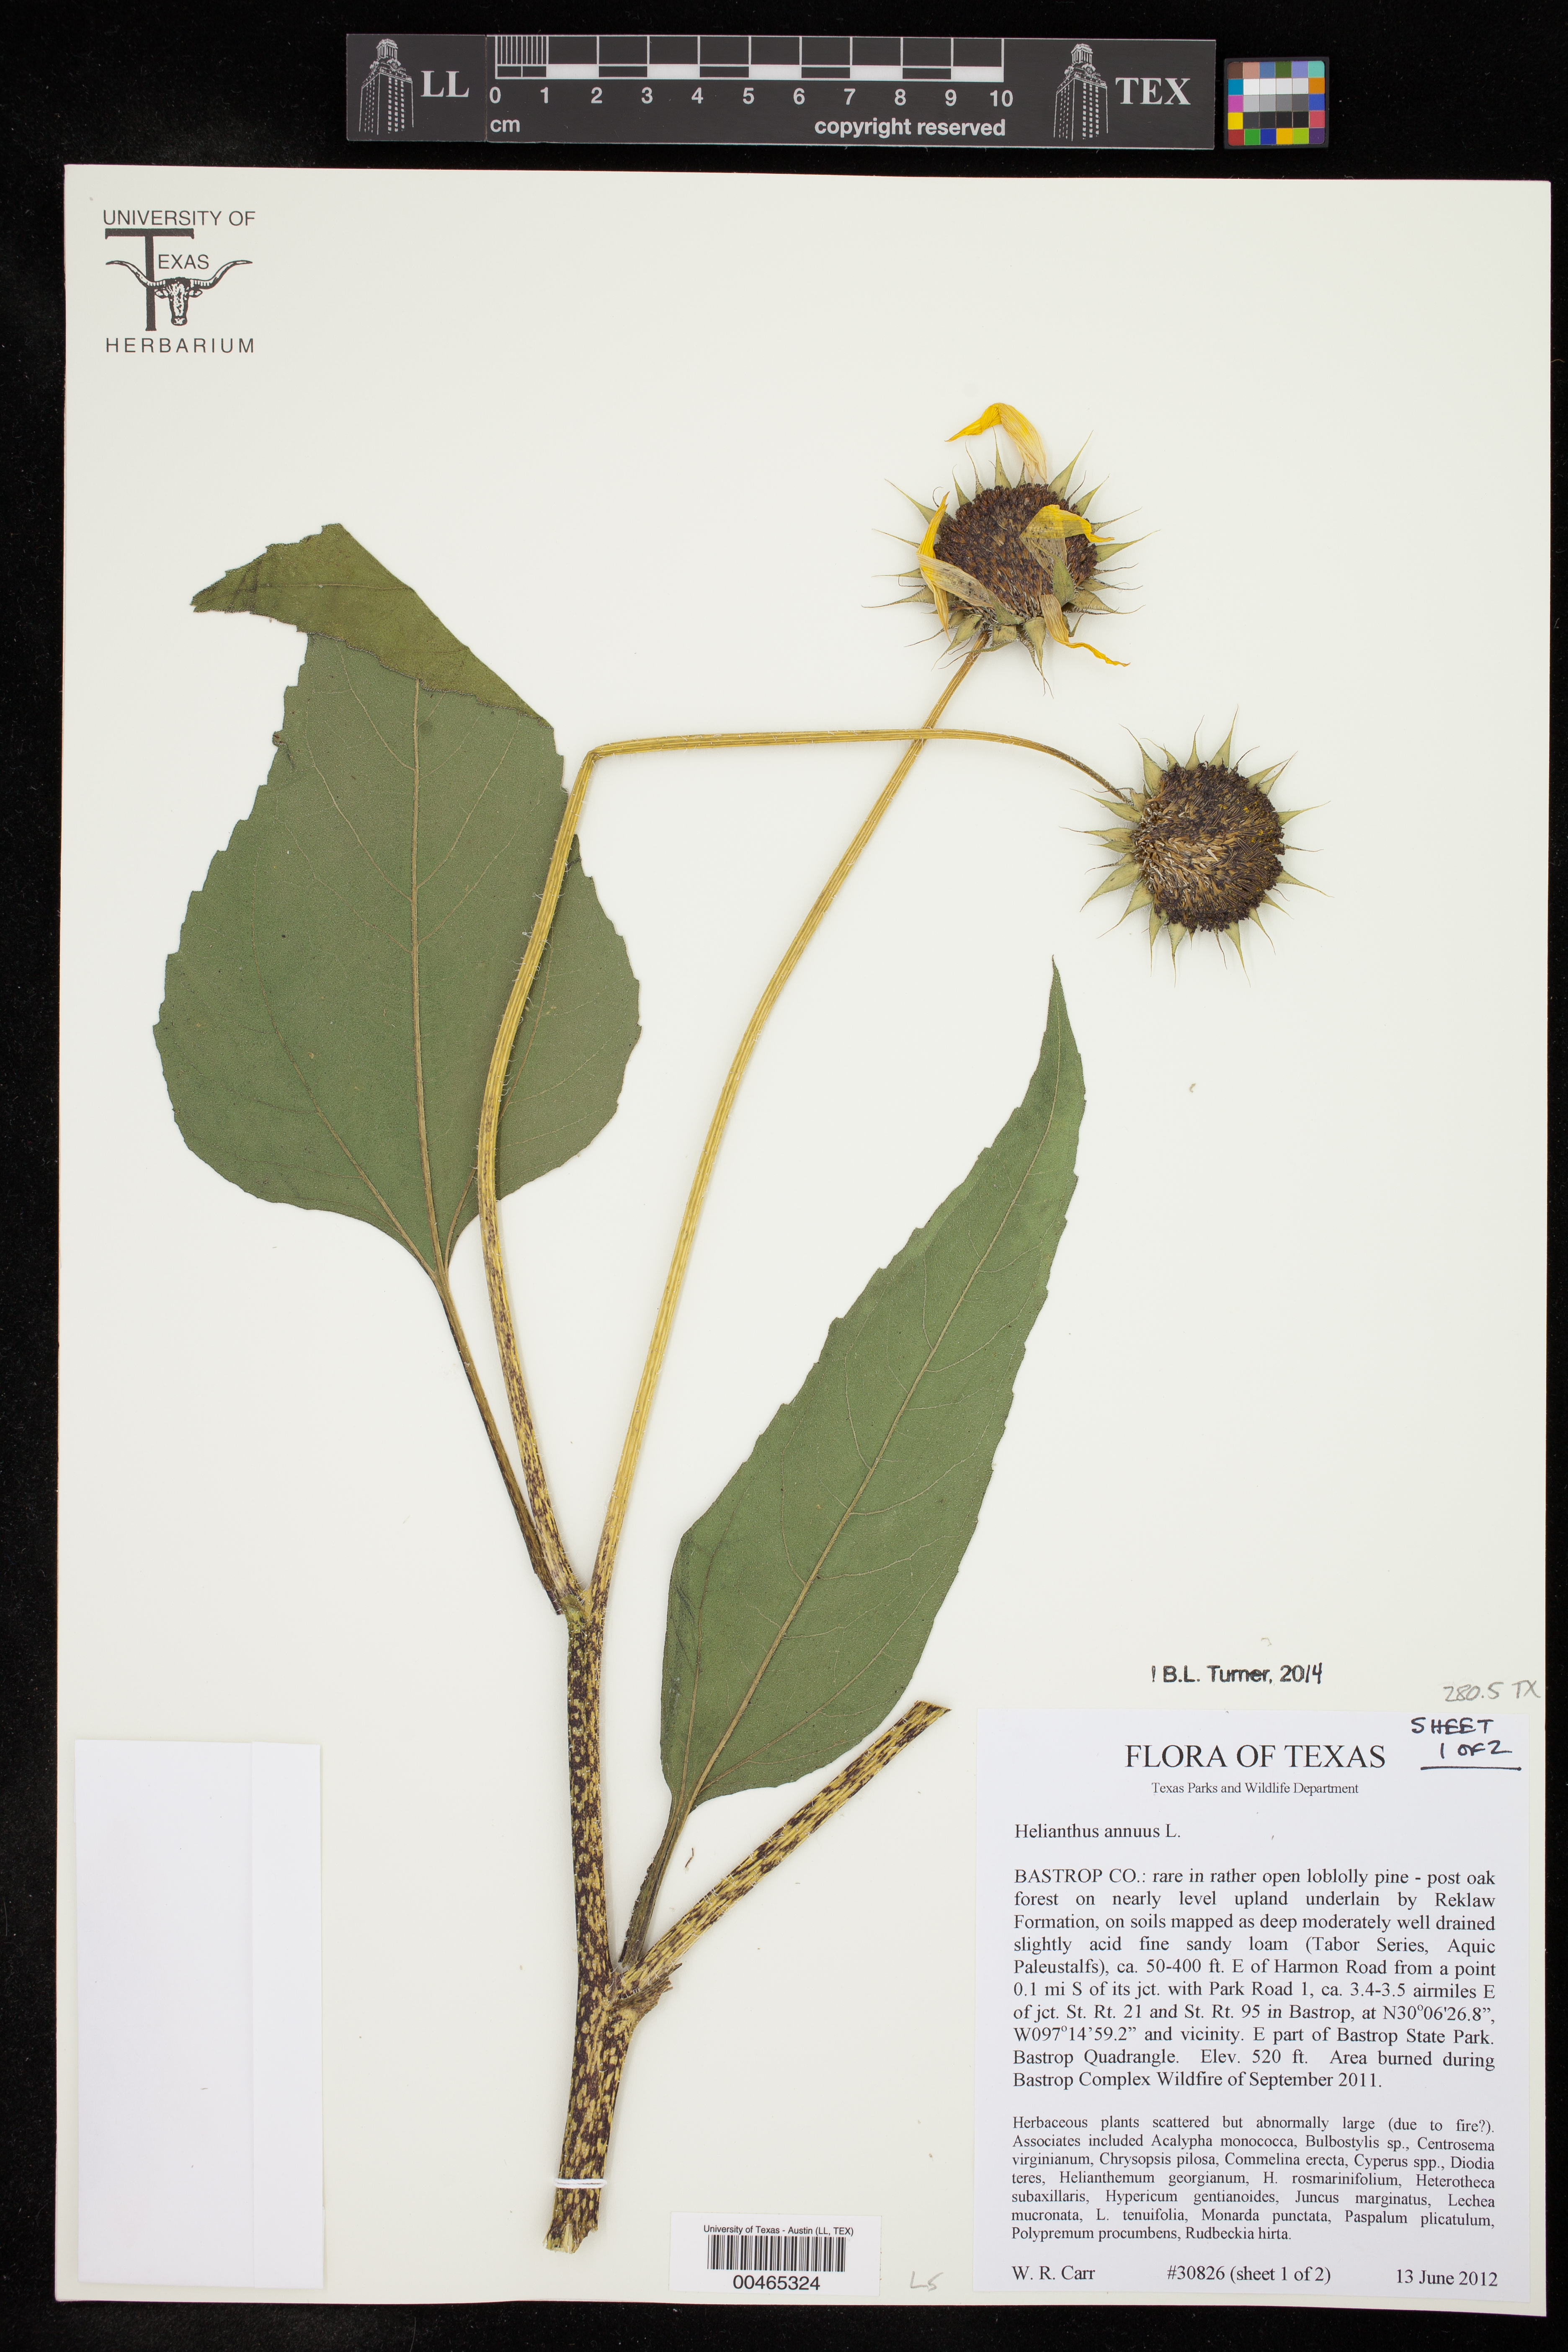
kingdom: Plantae
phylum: Tracheophyta
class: Magnoliopsida
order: Asterales
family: Asteraceae
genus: Helianthus
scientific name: Helianthus annuus
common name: Sunflower
